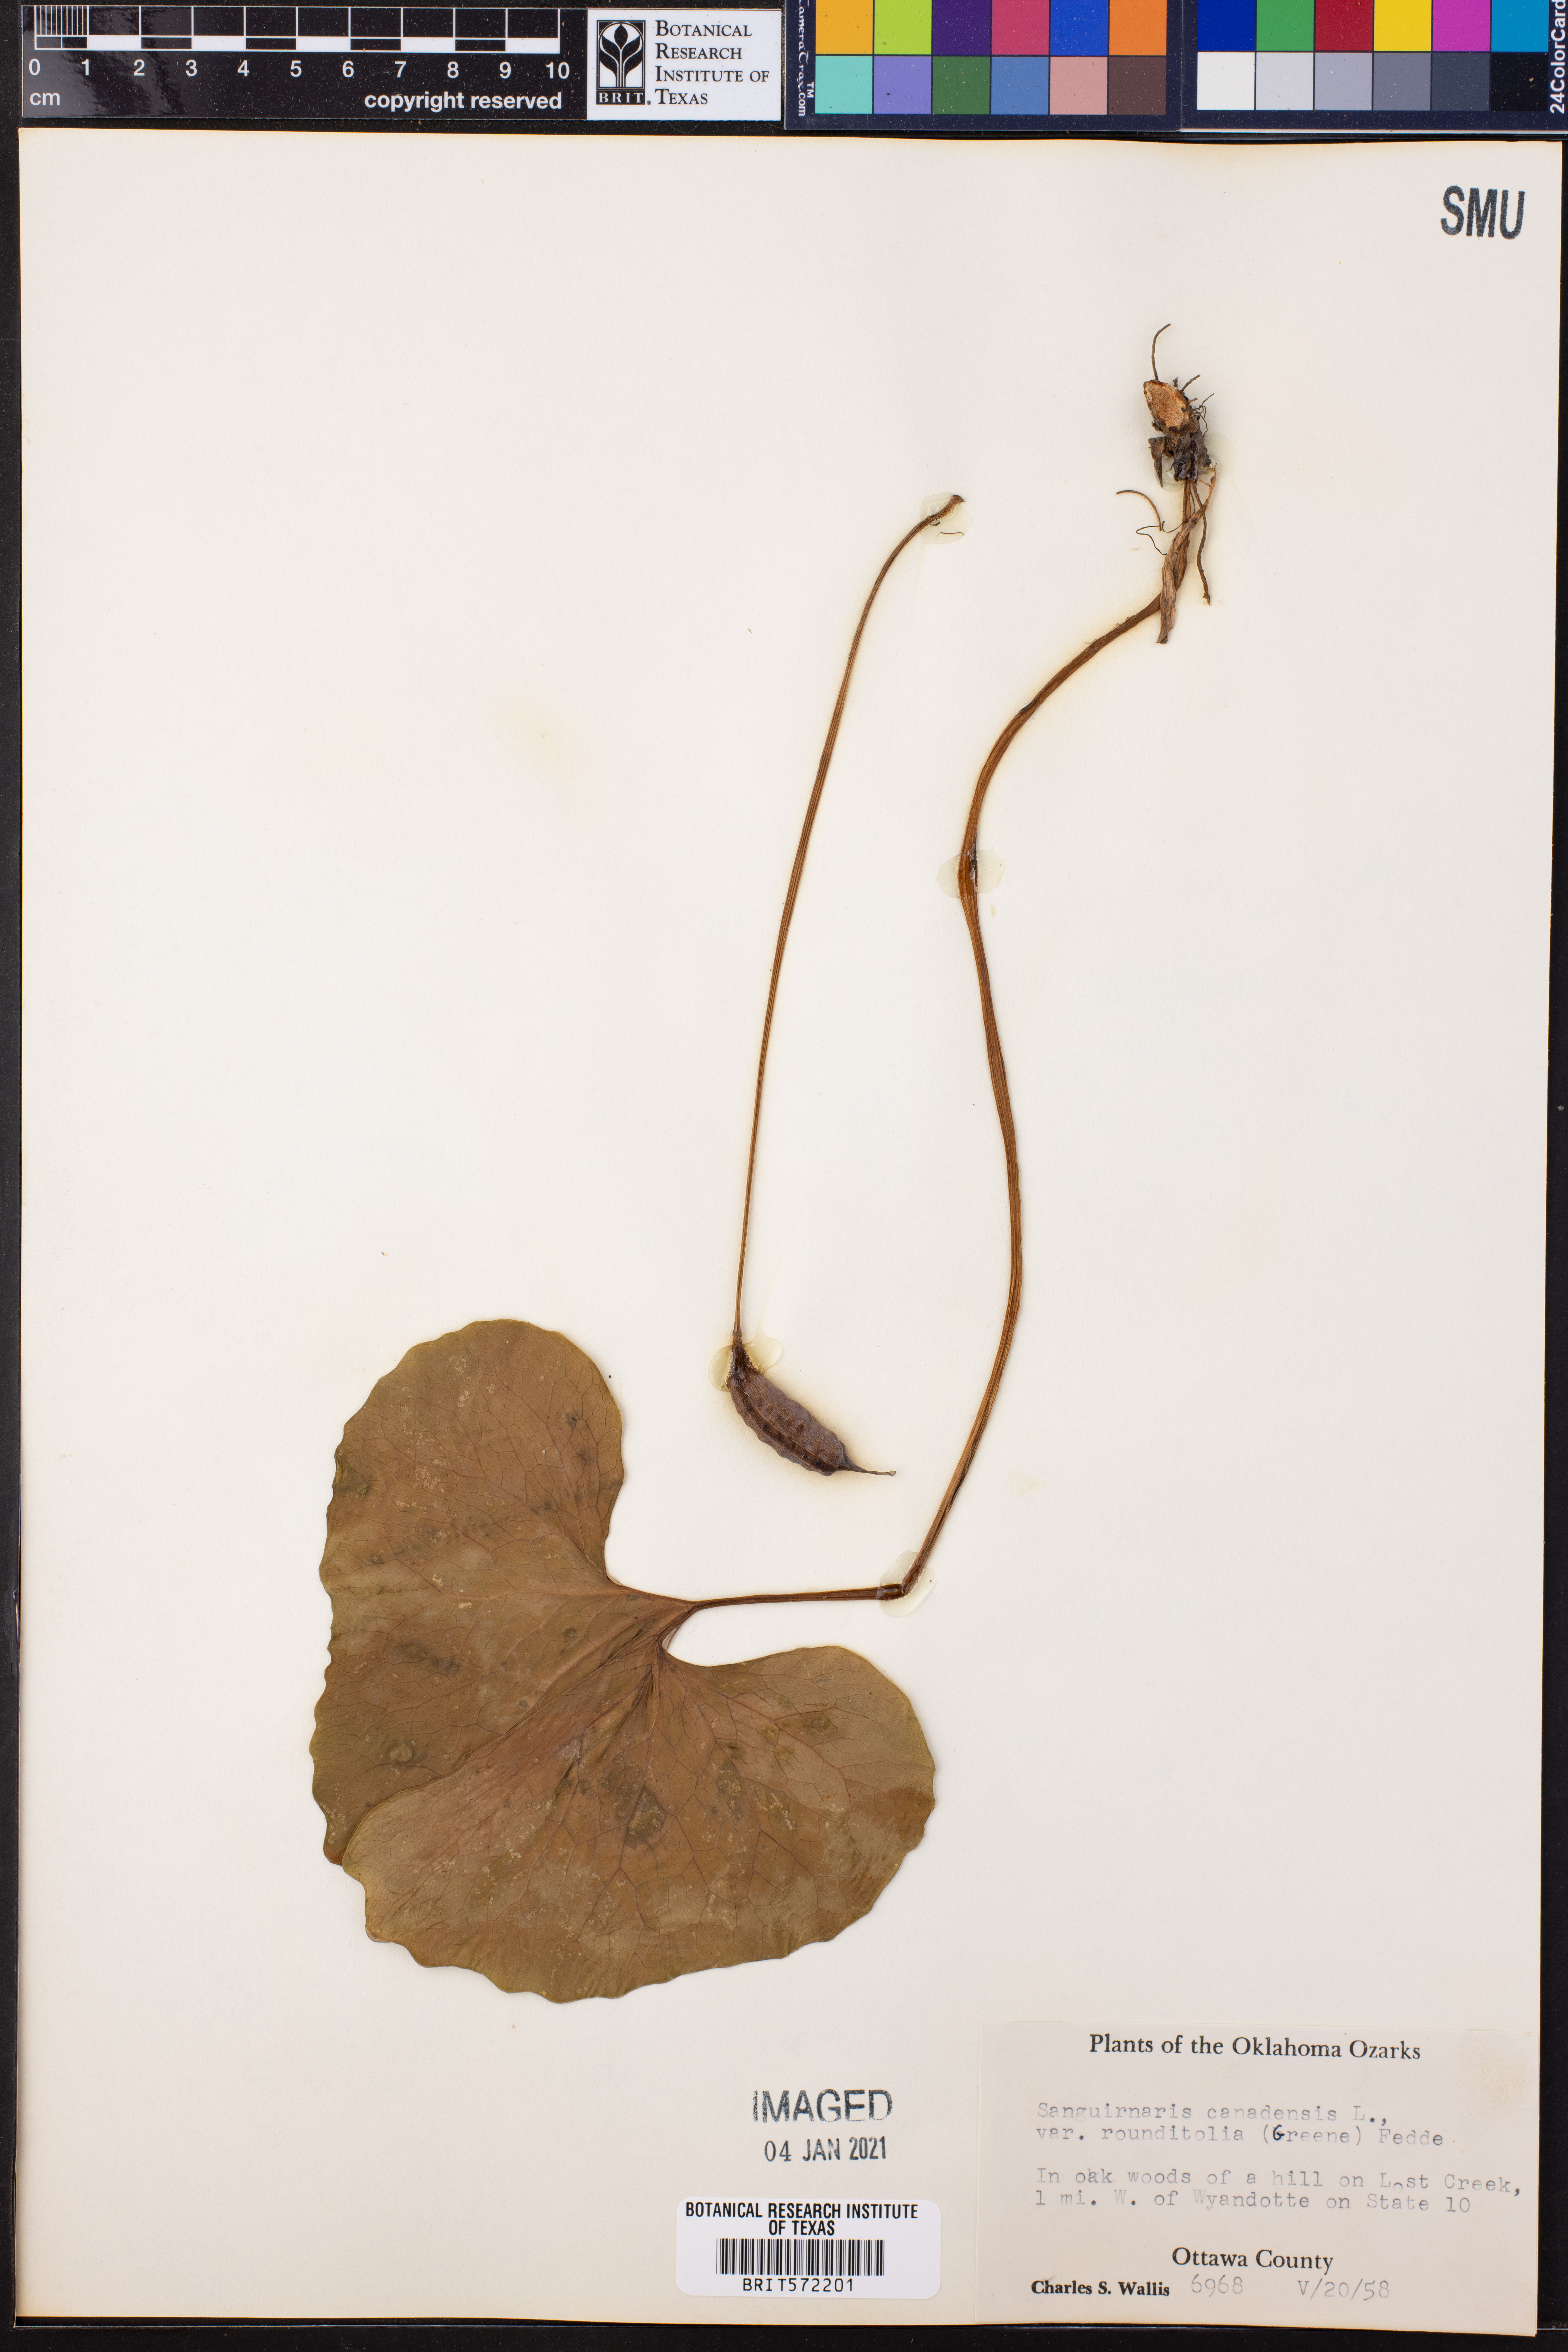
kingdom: Plantae
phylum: Tracheophyta
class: Magnoliopsida
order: Ranunculales
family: Papaveraceae
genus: Sanguinaria
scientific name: Sanguinaria canadensis
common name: Bloodroot
